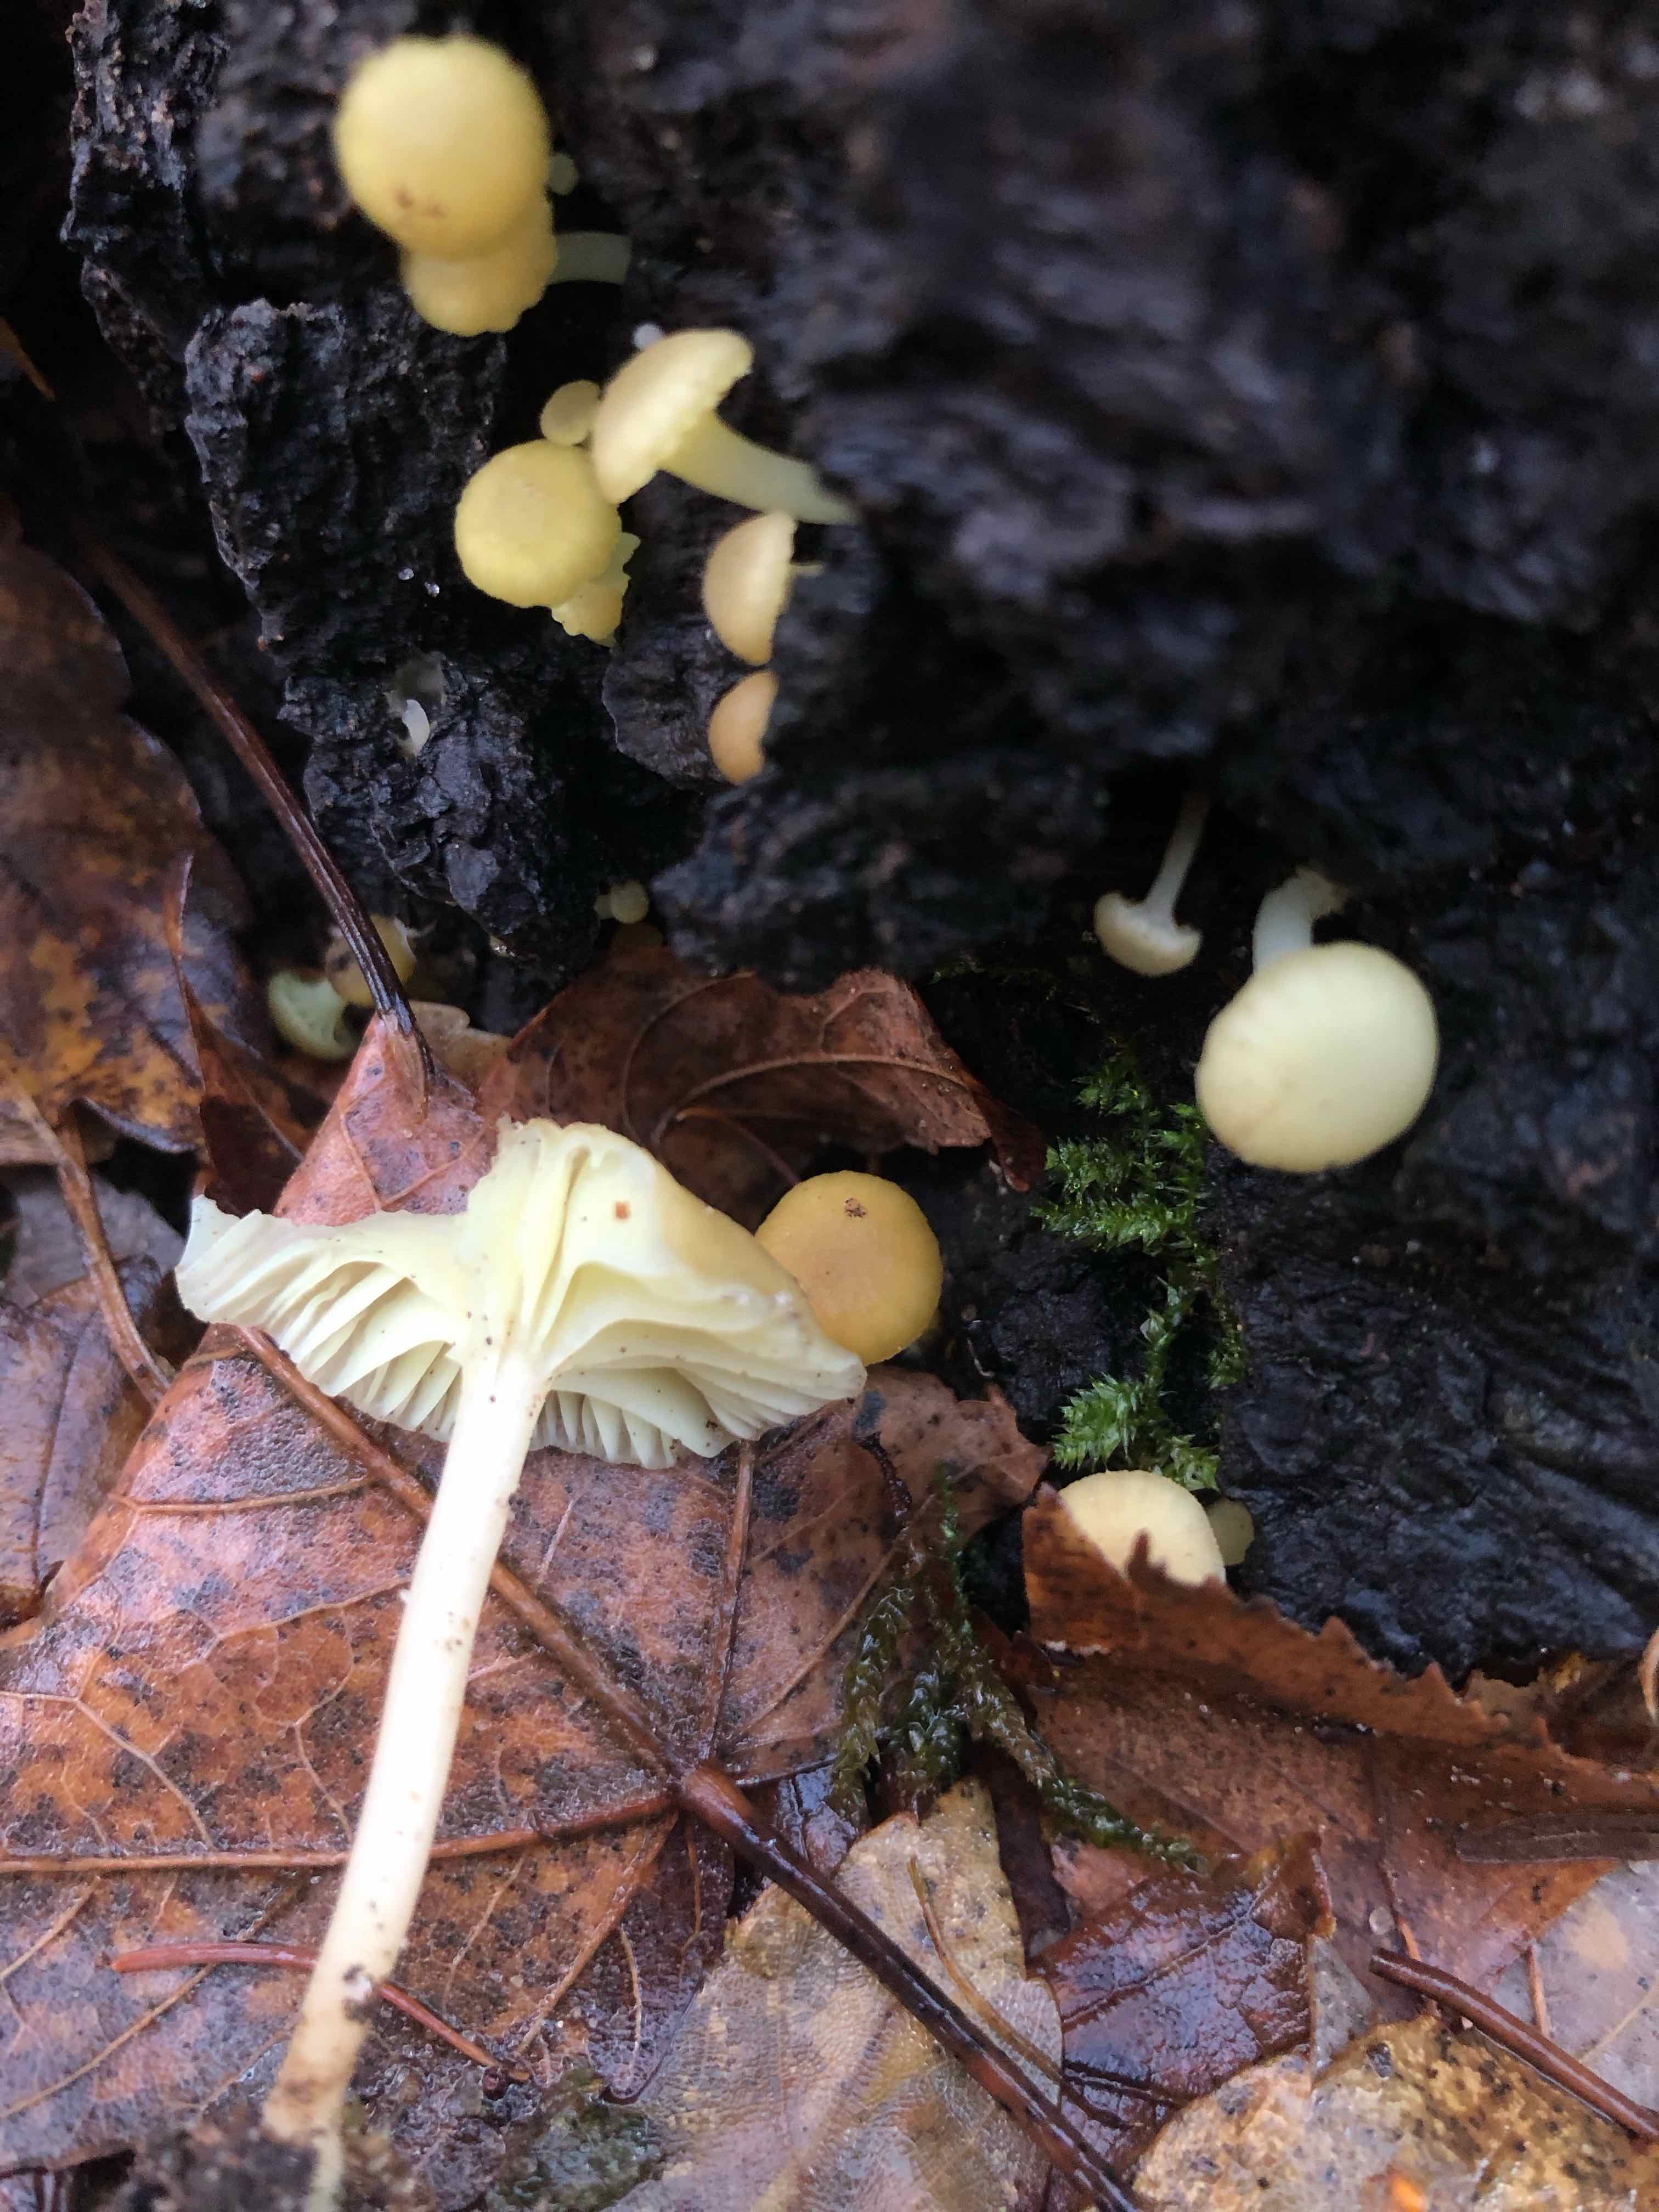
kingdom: Fungi
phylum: Basidiomycota
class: Agaricomycetes
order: Agaricales
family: Hygrophoraceae
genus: Chrysomphalina
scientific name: Chrysomphalina grossula
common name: stød-gyldenblad
